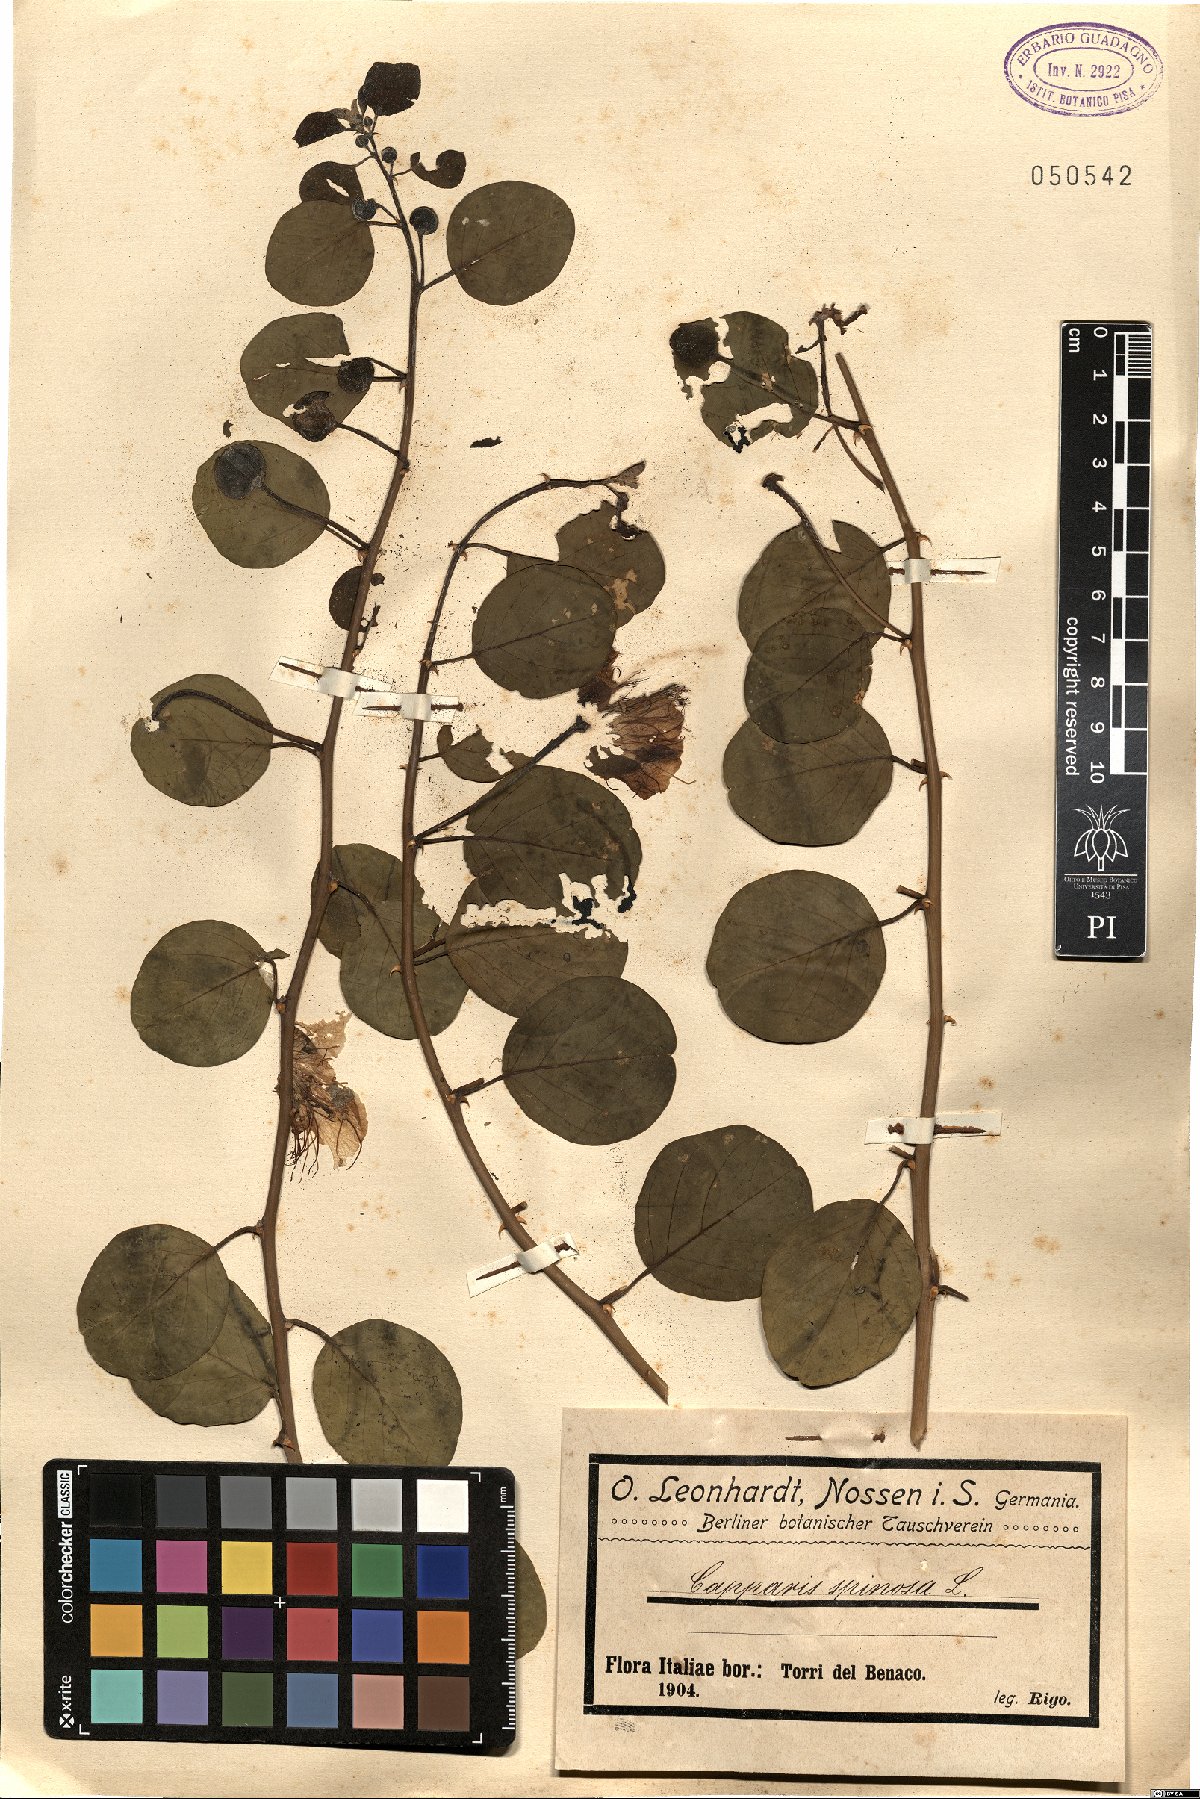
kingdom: Plantae
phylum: Tracheophyta
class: Magnoliopsida
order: Brassicales
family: Capparaceae
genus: Capparis
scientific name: Capparis spinosa
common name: Caper
